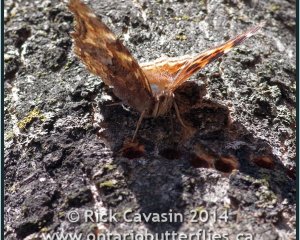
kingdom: Animalia
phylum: Arthropoda
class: Insecta
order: Lepidoptera
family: Nymphalidae
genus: Polygonia
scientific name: Polygonia vaualbum
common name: Compton Tortoiseshell
